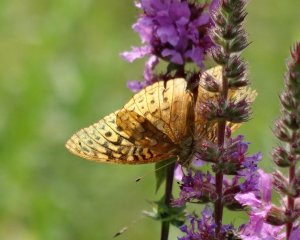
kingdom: Animalia
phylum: Arthropoda
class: Insecta
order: Lepidoptera
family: Nymphalidae
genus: Speyeria
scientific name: Speyeria cybele
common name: Great Spangled Fritillary
